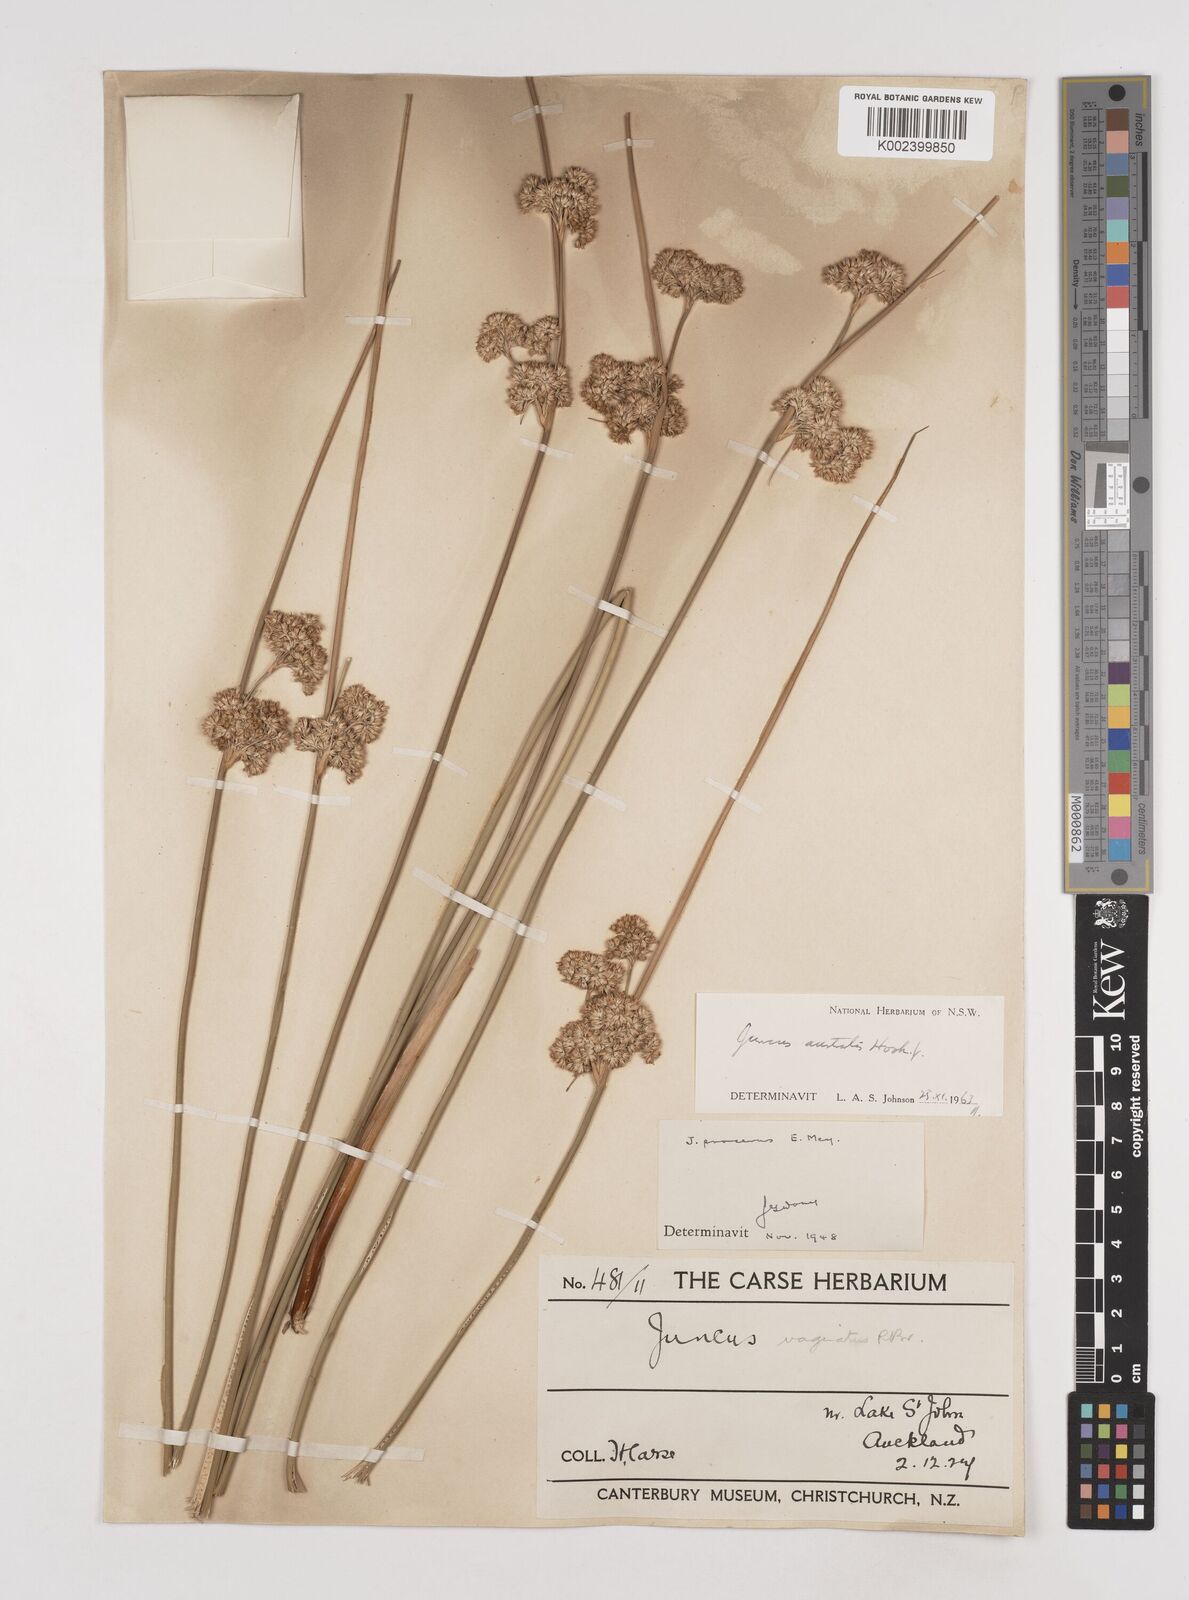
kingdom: Plantae
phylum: Tracheophyta
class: Liliopsida
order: Poales
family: Juncaceae
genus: Juncus
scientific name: Juncus australis
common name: Austral rush
